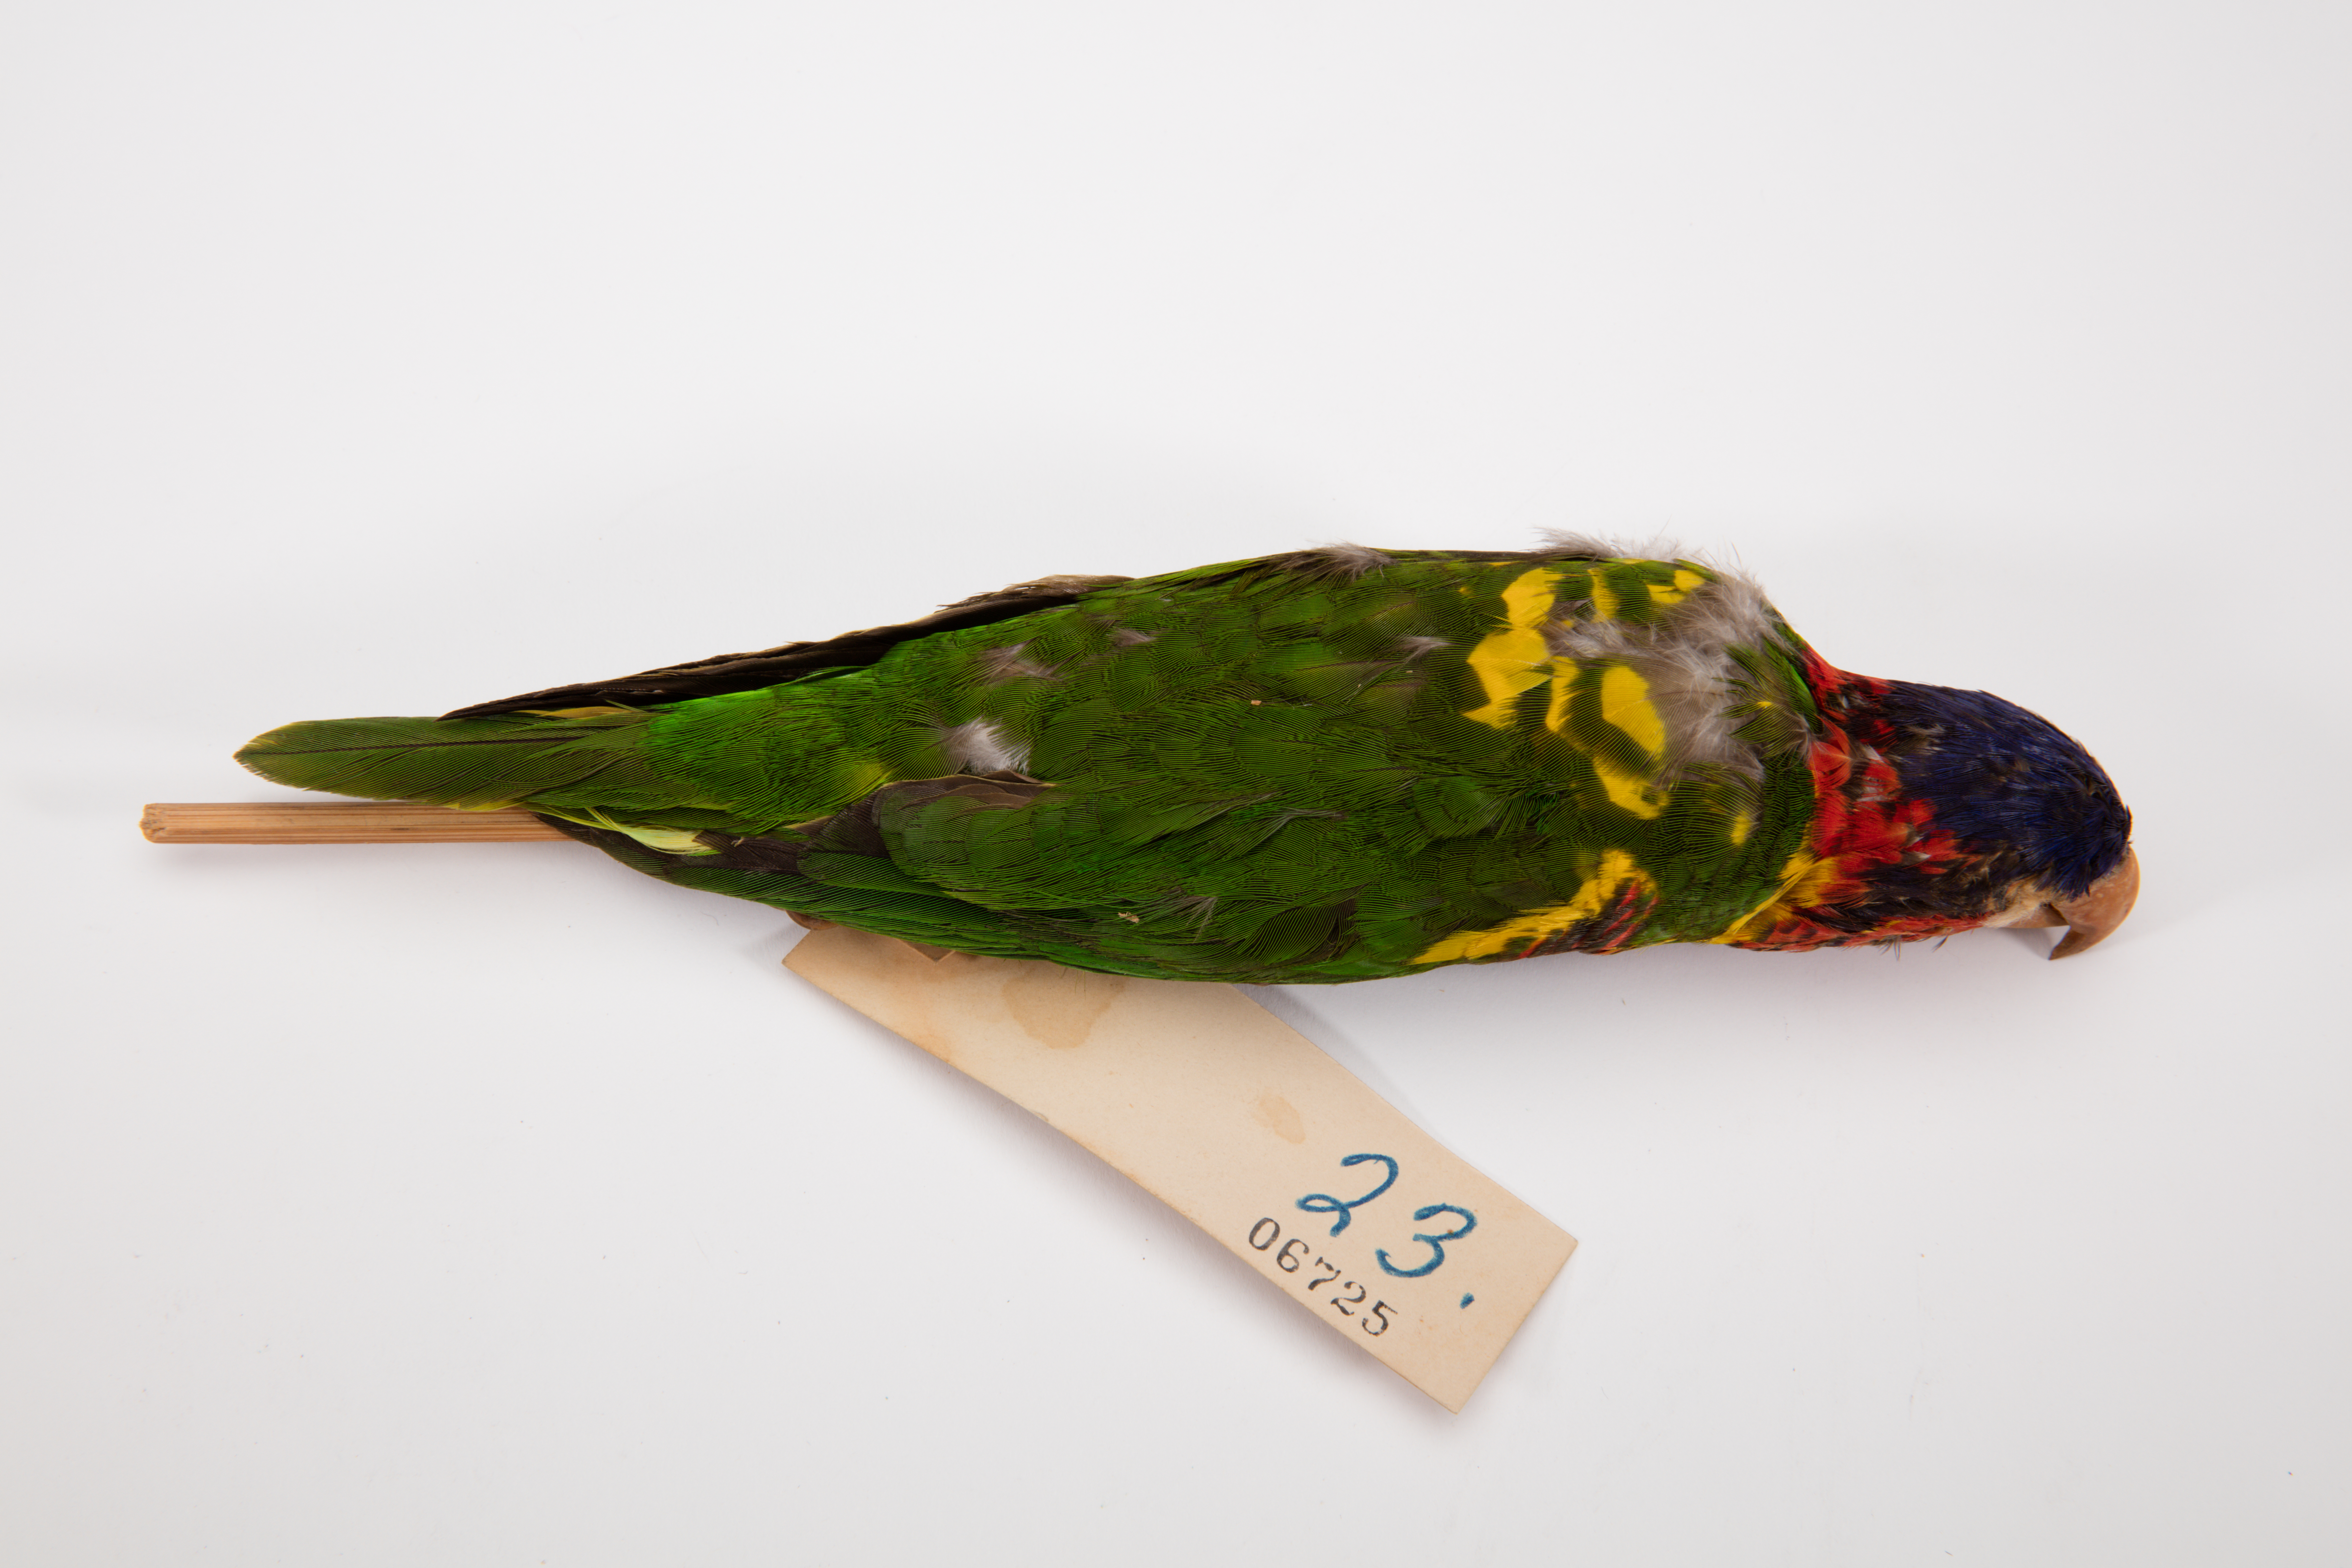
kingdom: Animalia
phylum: Chordata
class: Aves
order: Psittaciformes
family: Psittacidae
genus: Trichoglossus
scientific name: Trichoglossus ornatus
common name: Ornate lorikeet
